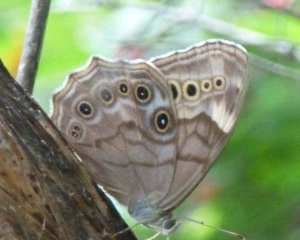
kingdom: Animalia
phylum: Arthropoda
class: Insecta
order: Lepidoptera
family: Nymphalidae
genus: Lethe
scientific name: Lethe anthedon
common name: Northern Pearly-Eye
